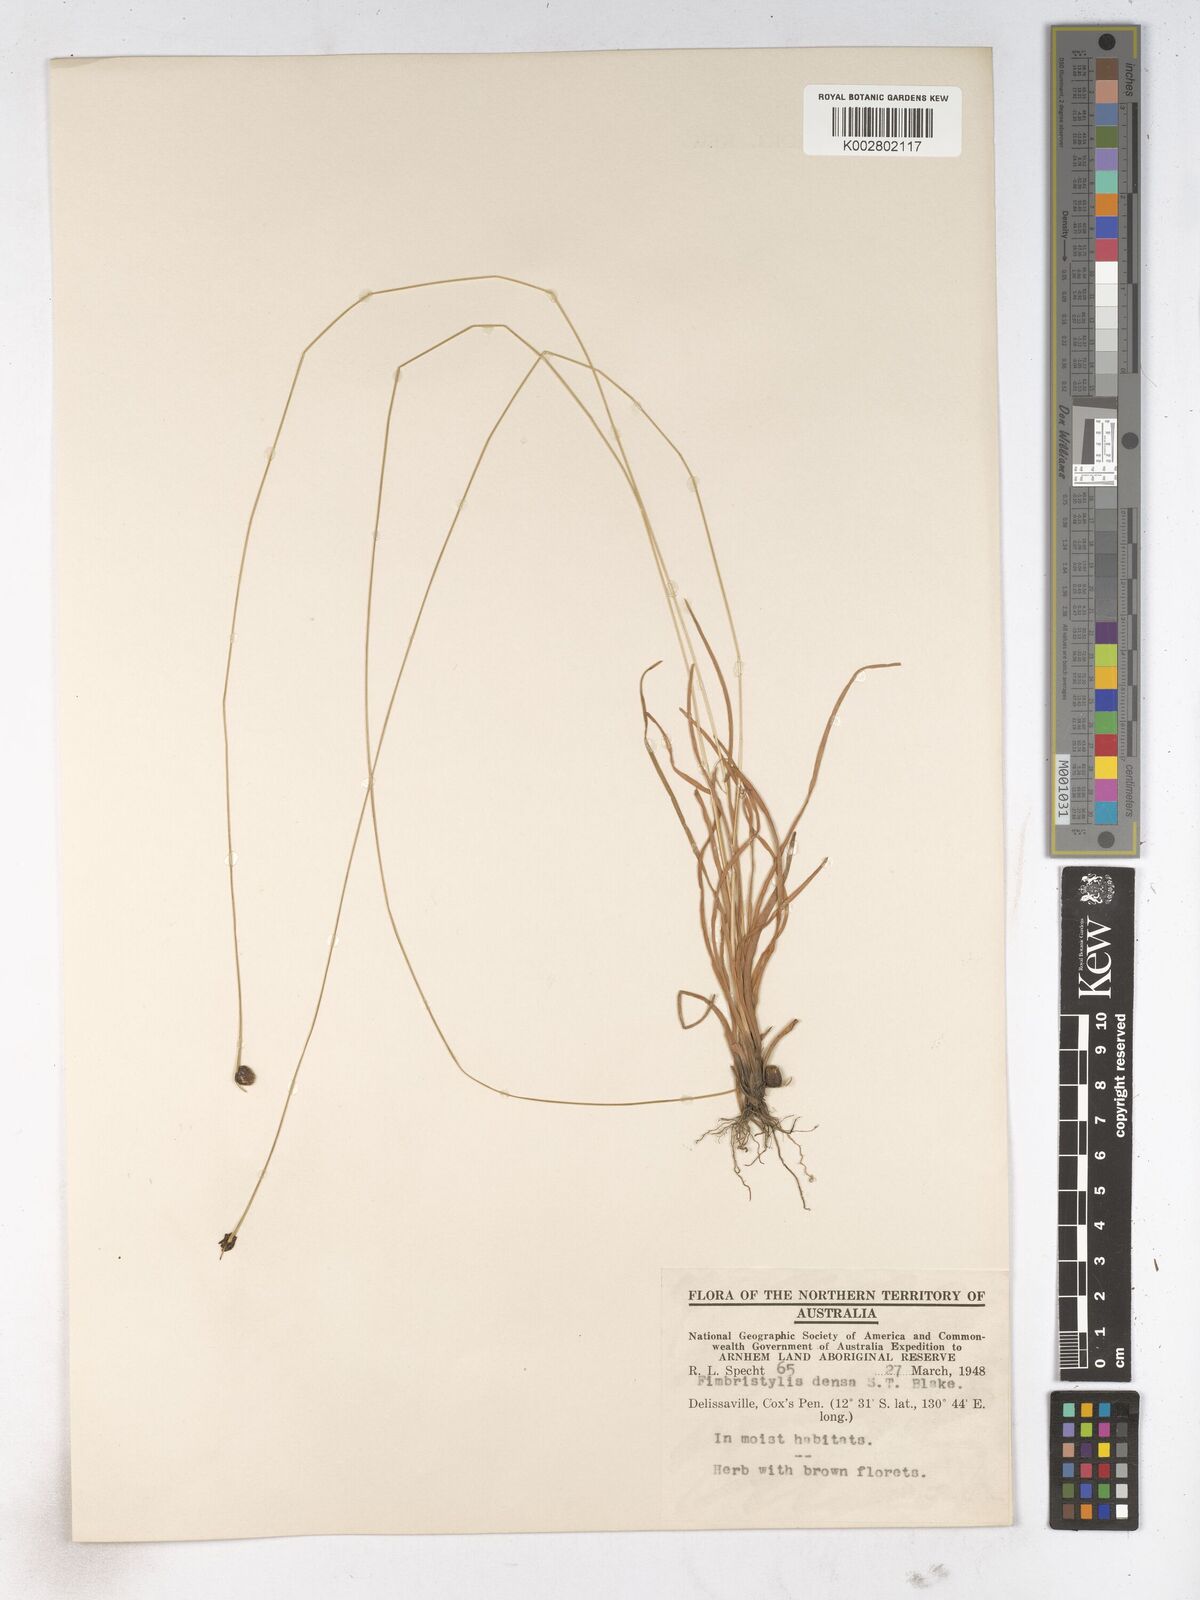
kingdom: Plantae
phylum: Tracheophyta
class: Liliopsida
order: Poales
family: Cyperaceae
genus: Fimbristylis
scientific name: Fimbristylis densa
